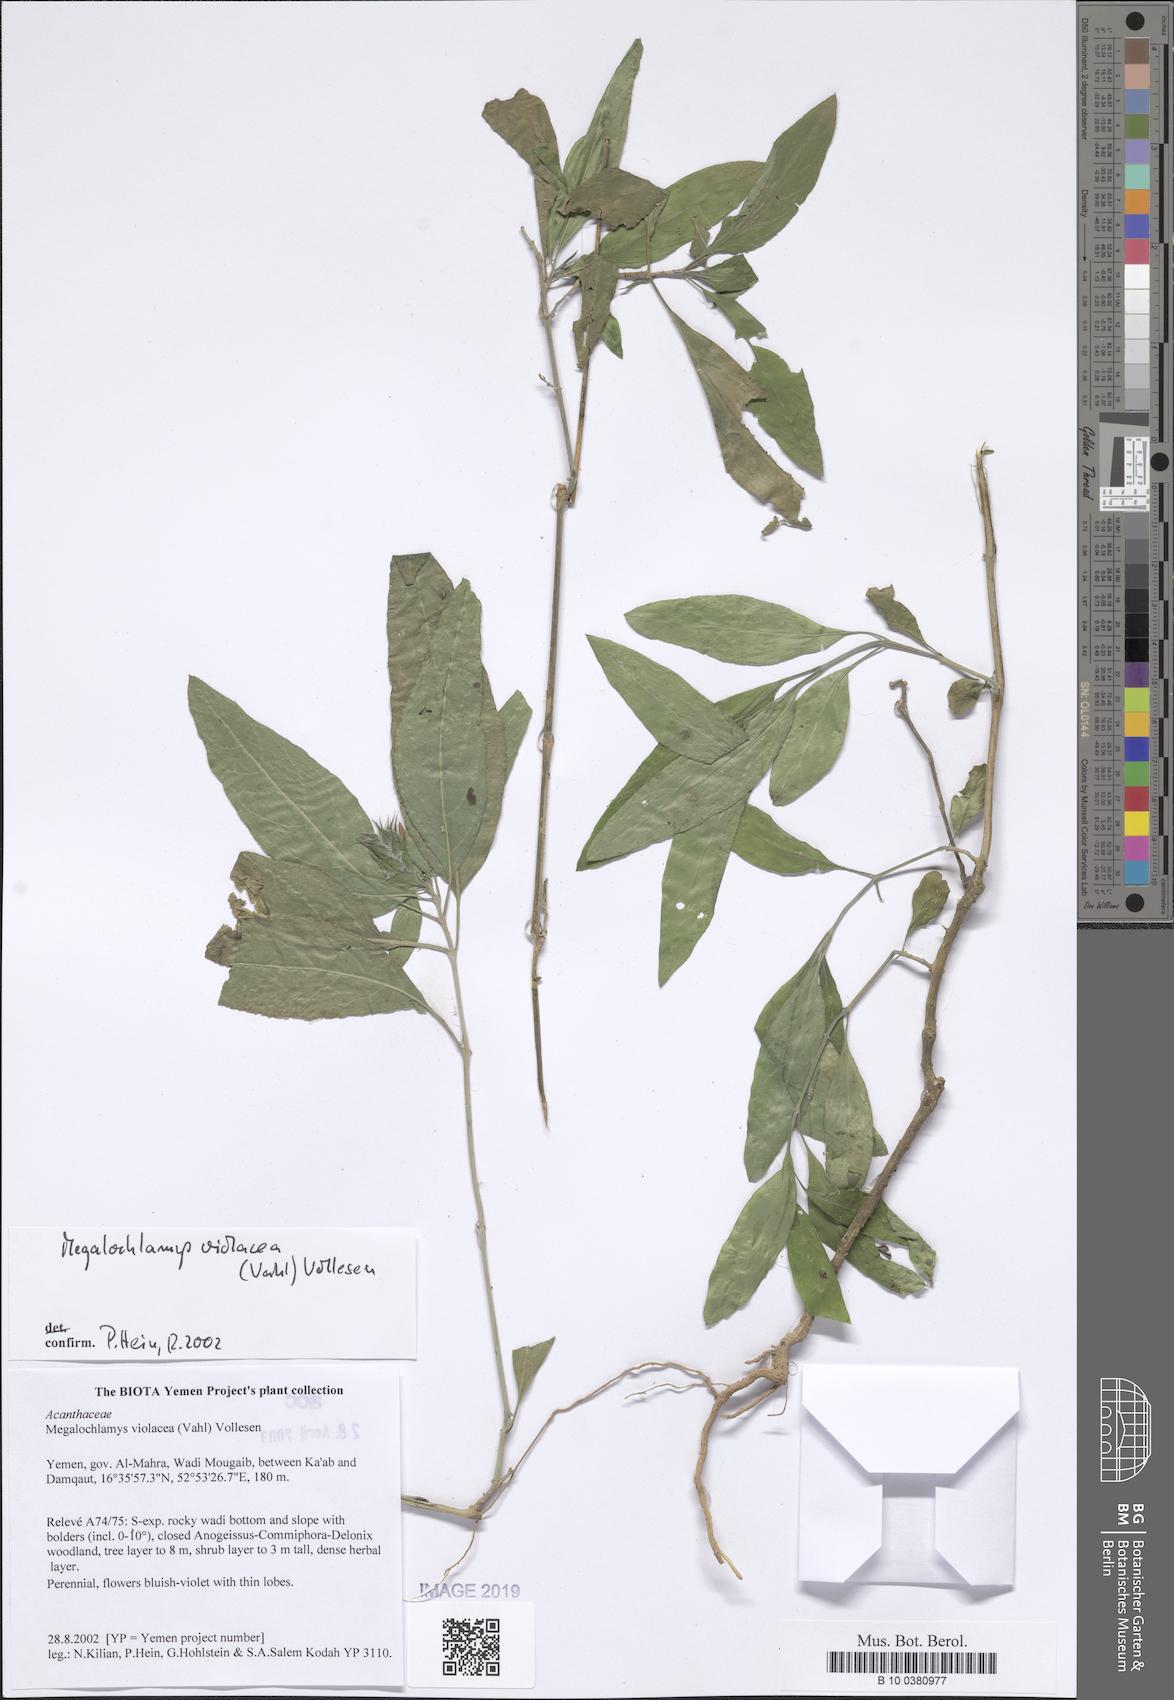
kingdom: Plantae
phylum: Tracheophyta
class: Magnoliopsida
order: Lamiales
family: Acanthaceae
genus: Megalochlamys
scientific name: Megalochlamys violacea
